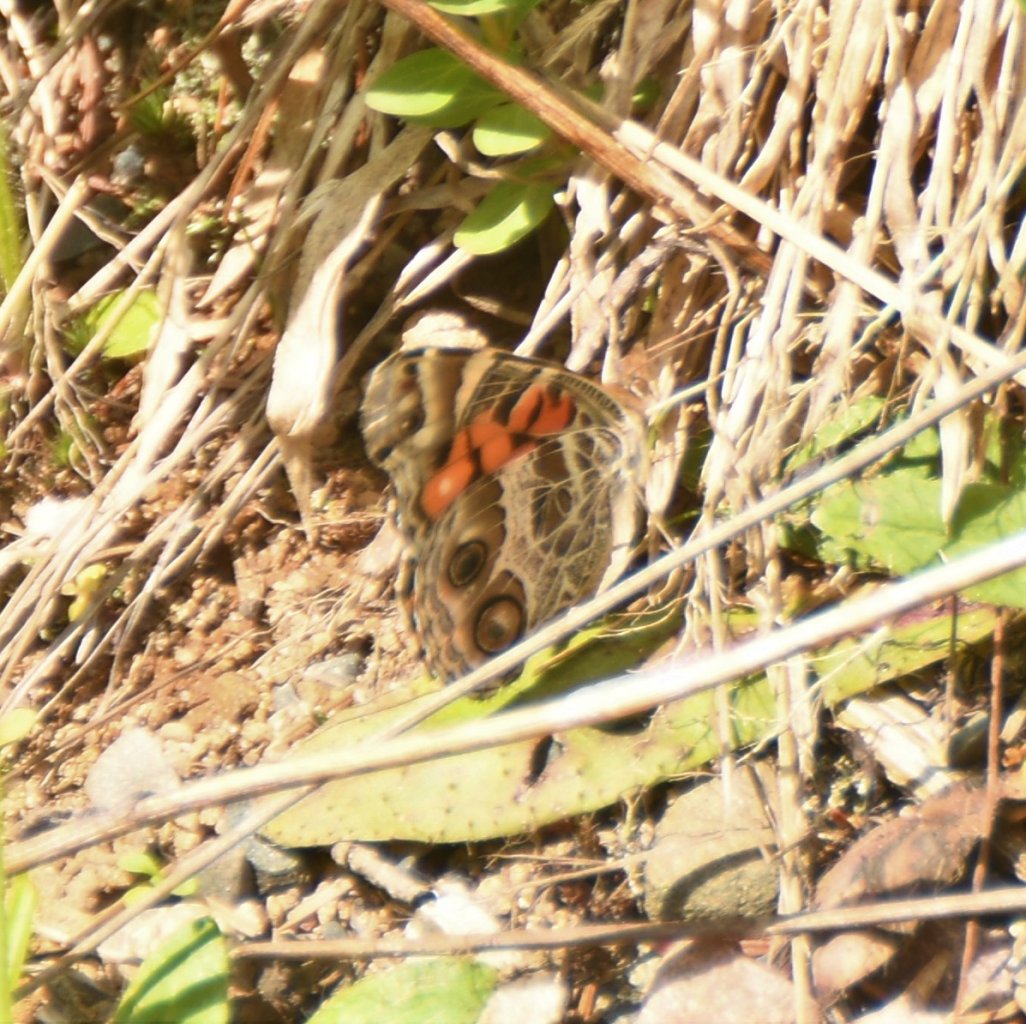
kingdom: Animalia
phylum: Arthropoda
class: Insecta
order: Lepidoptera
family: Nymphalidae
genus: Vanessa
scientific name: Vanessa virginiensis
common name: American Lady
